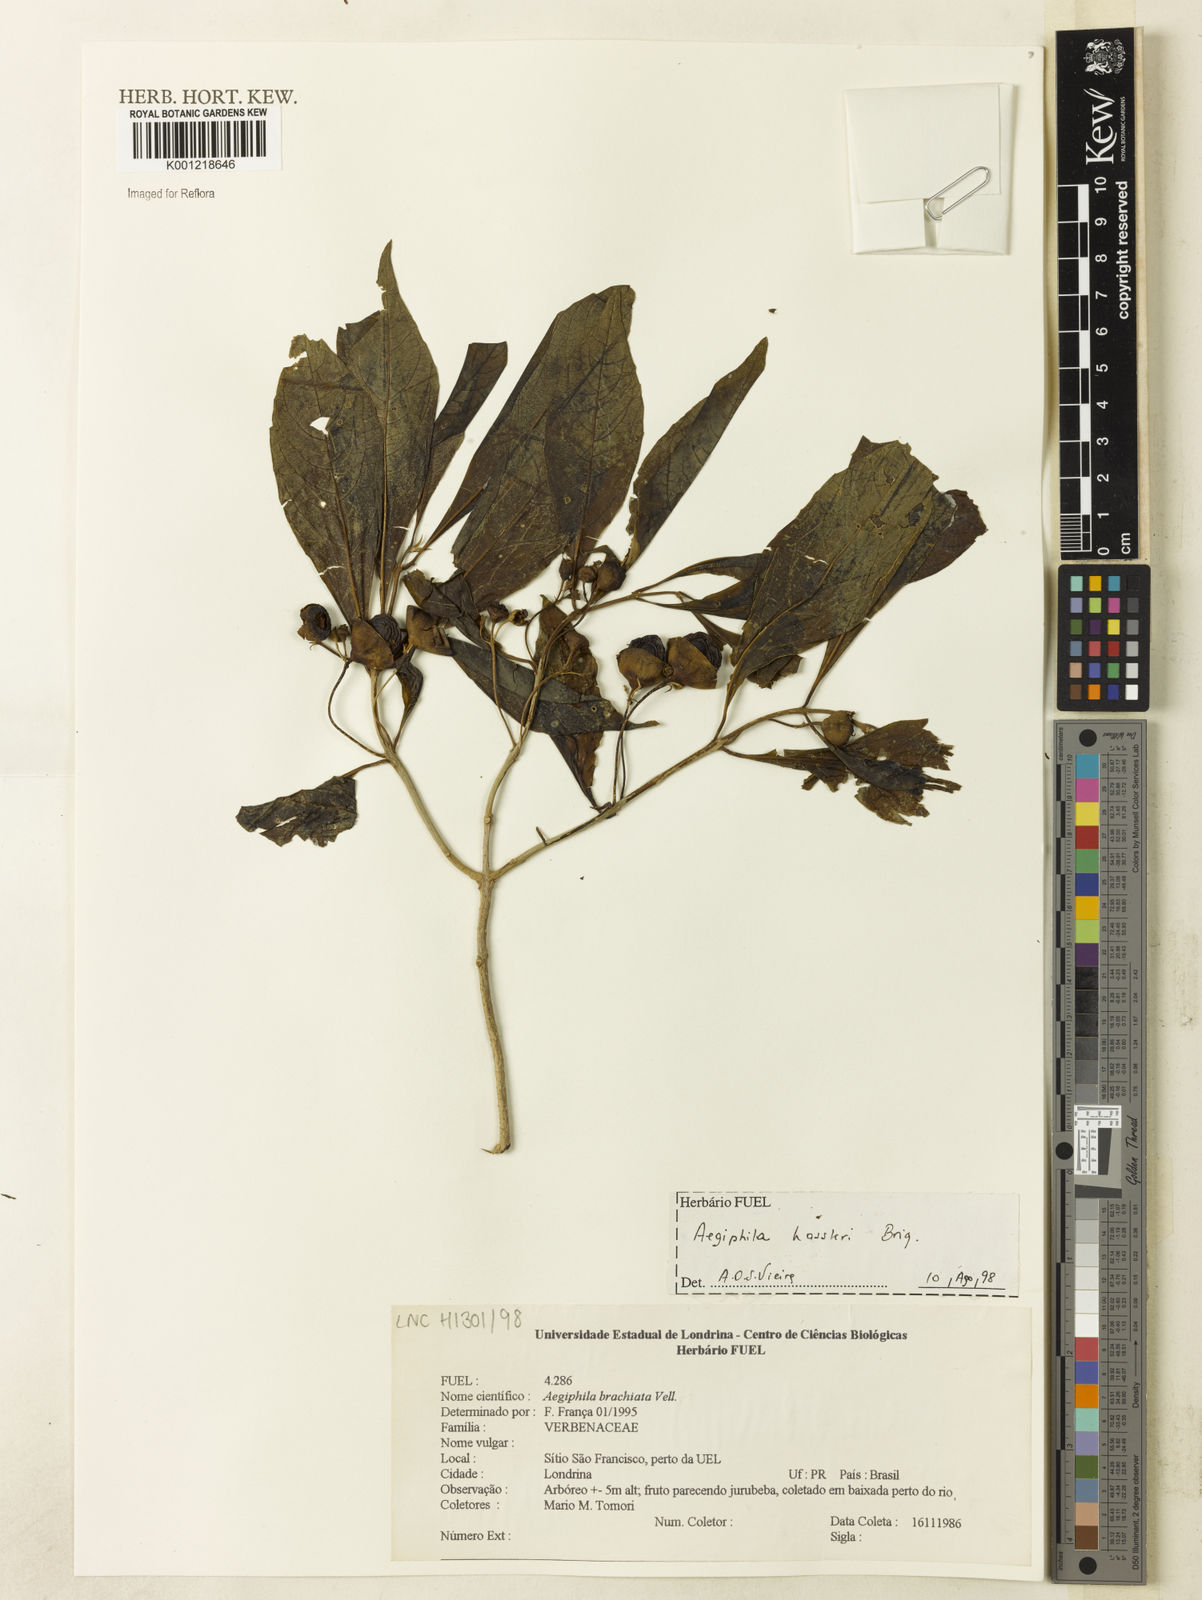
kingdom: Plantae
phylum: Tracheophyta
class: Magnoliopsida
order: Lamiales
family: Lamiaceae
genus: Aegiphila
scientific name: Aegiphila brachiata
